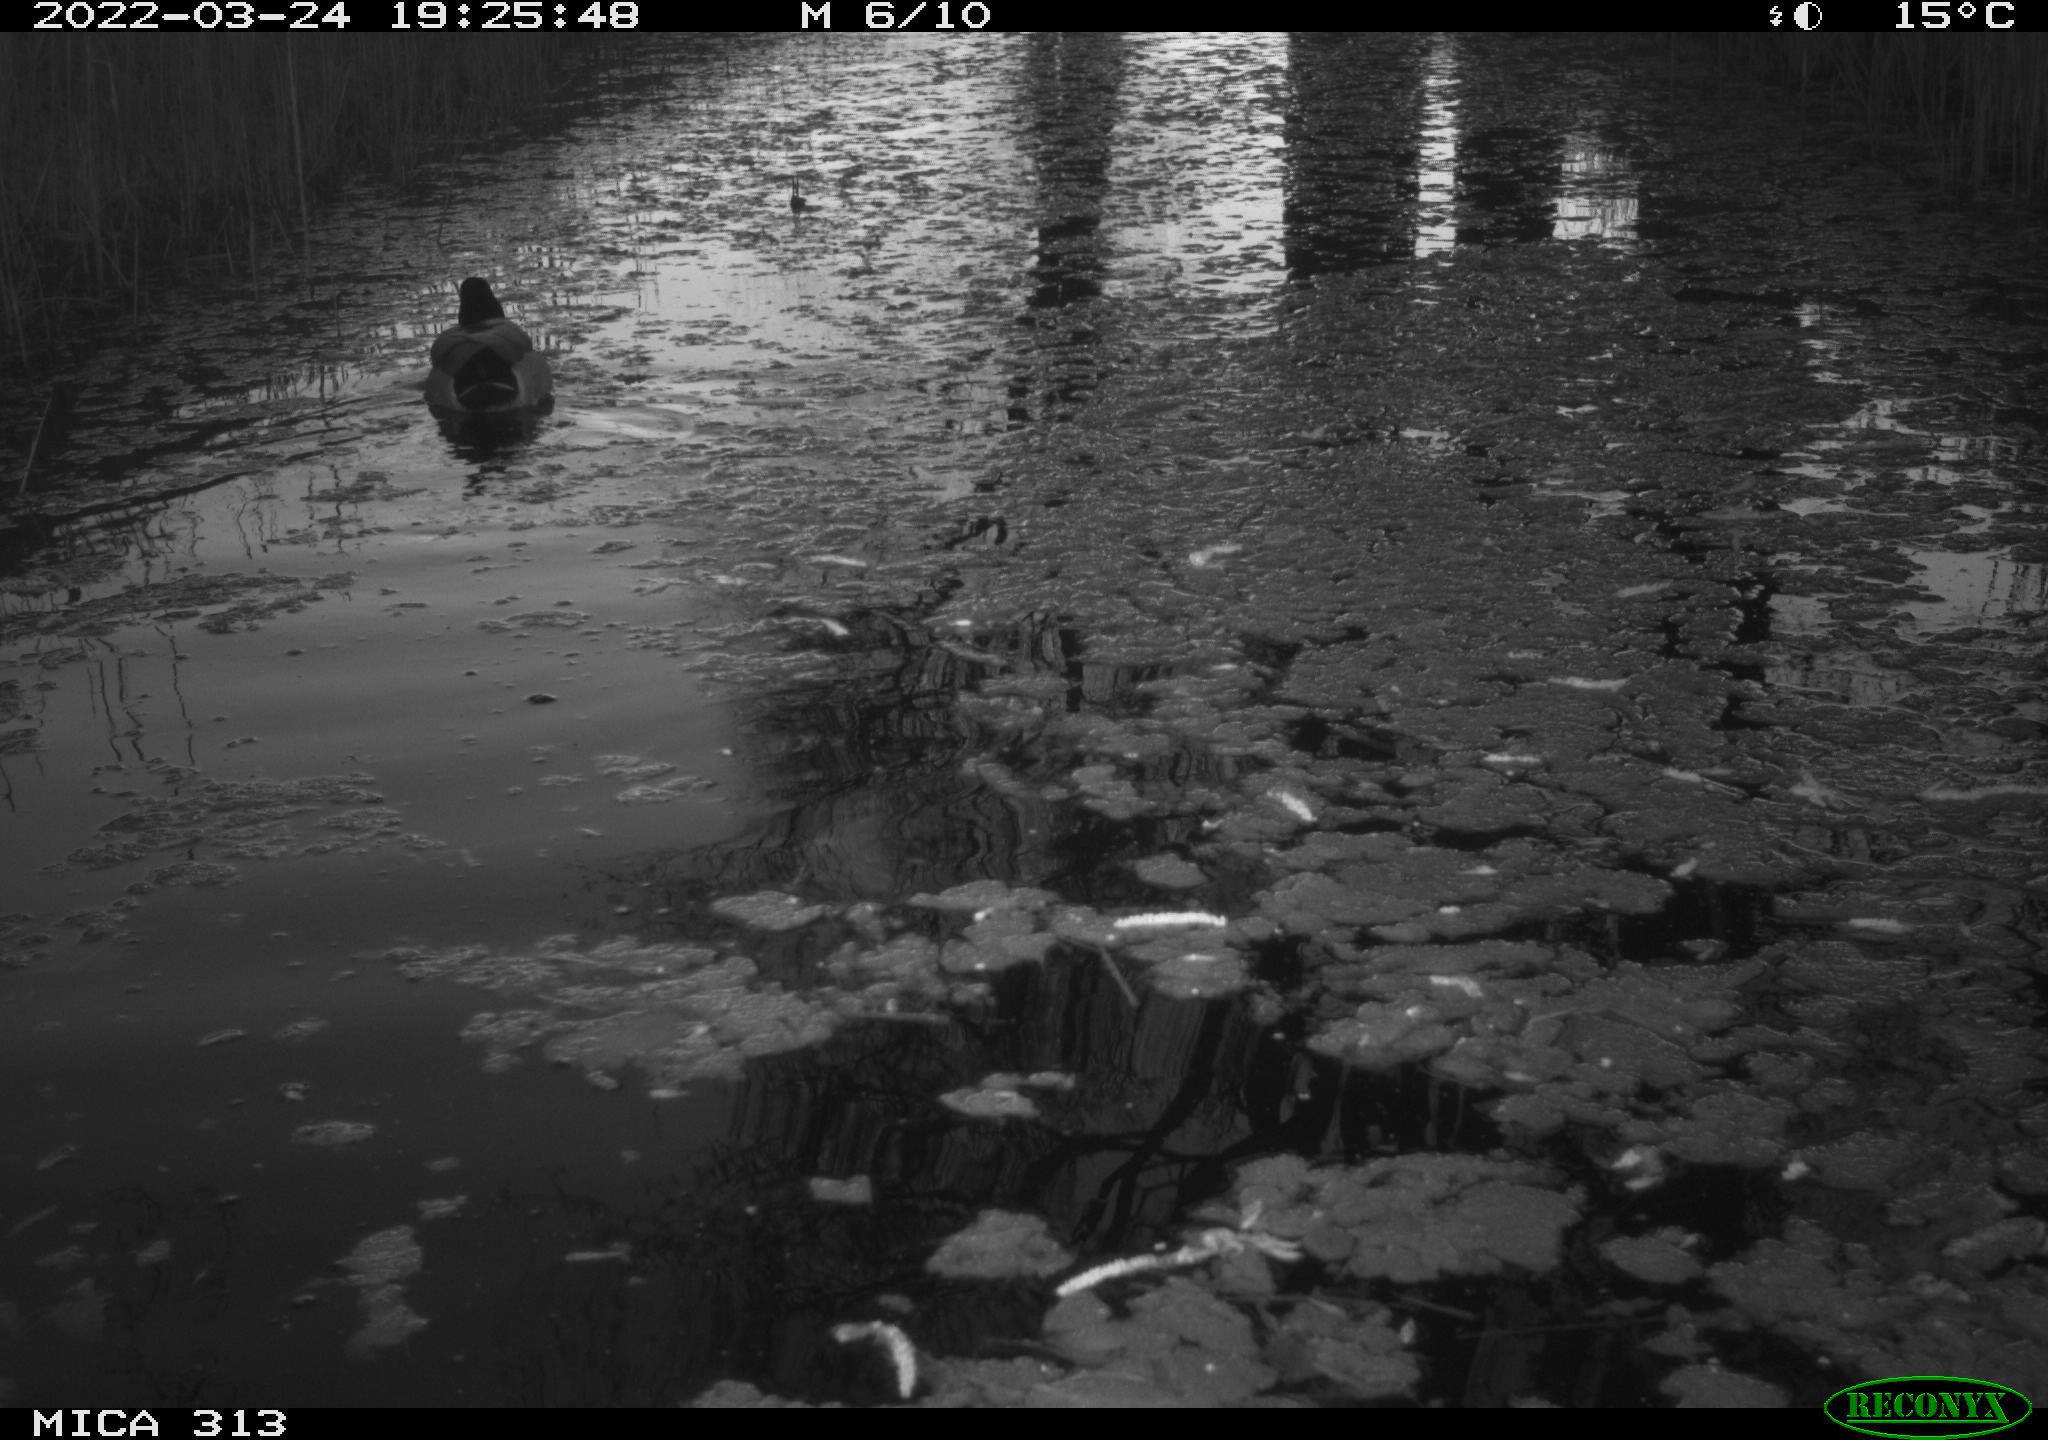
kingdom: Animalia
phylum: Chordata
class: Aves
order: Gruiformes
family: Rallidae
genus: Gallinula
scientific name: Gallinula chloropus
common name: Common moorhen
